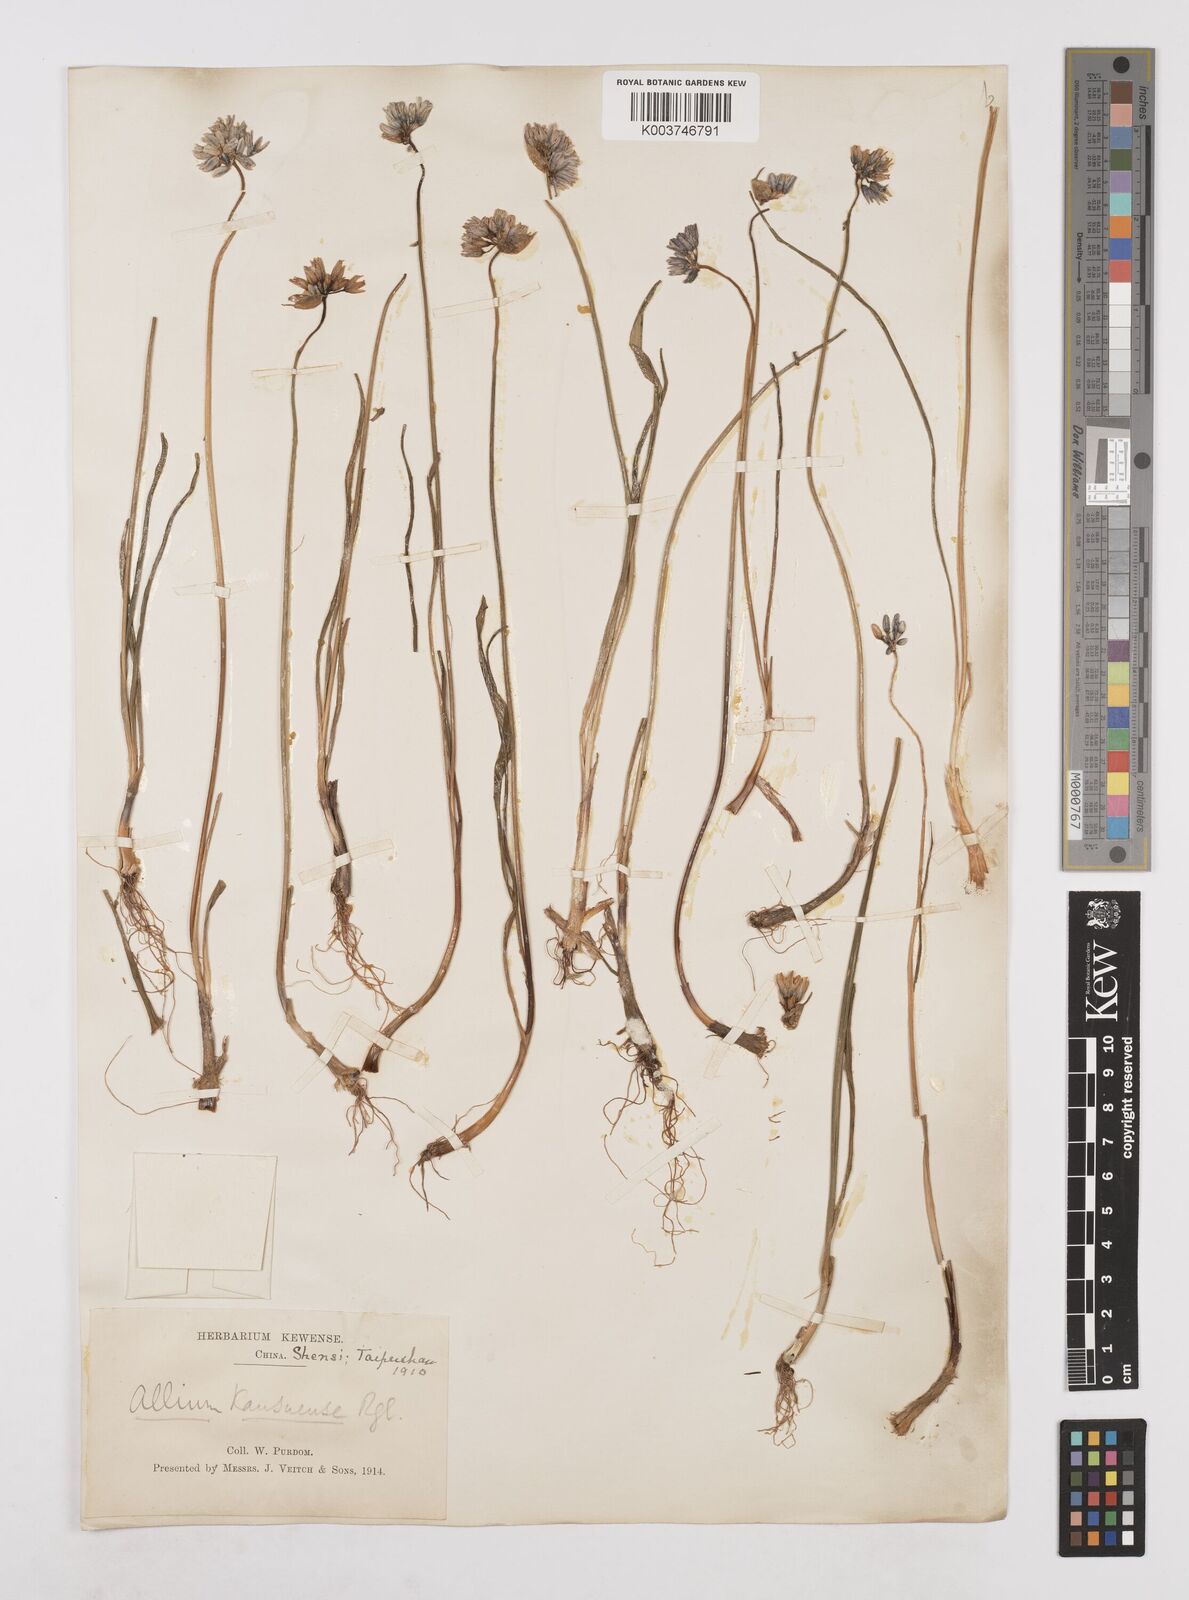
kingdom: Plantae
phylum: Tracheophyta
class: Liliopsida
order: Asparagales
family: Amaryllidaceae
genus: Allium
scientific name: Allium sikkimense
